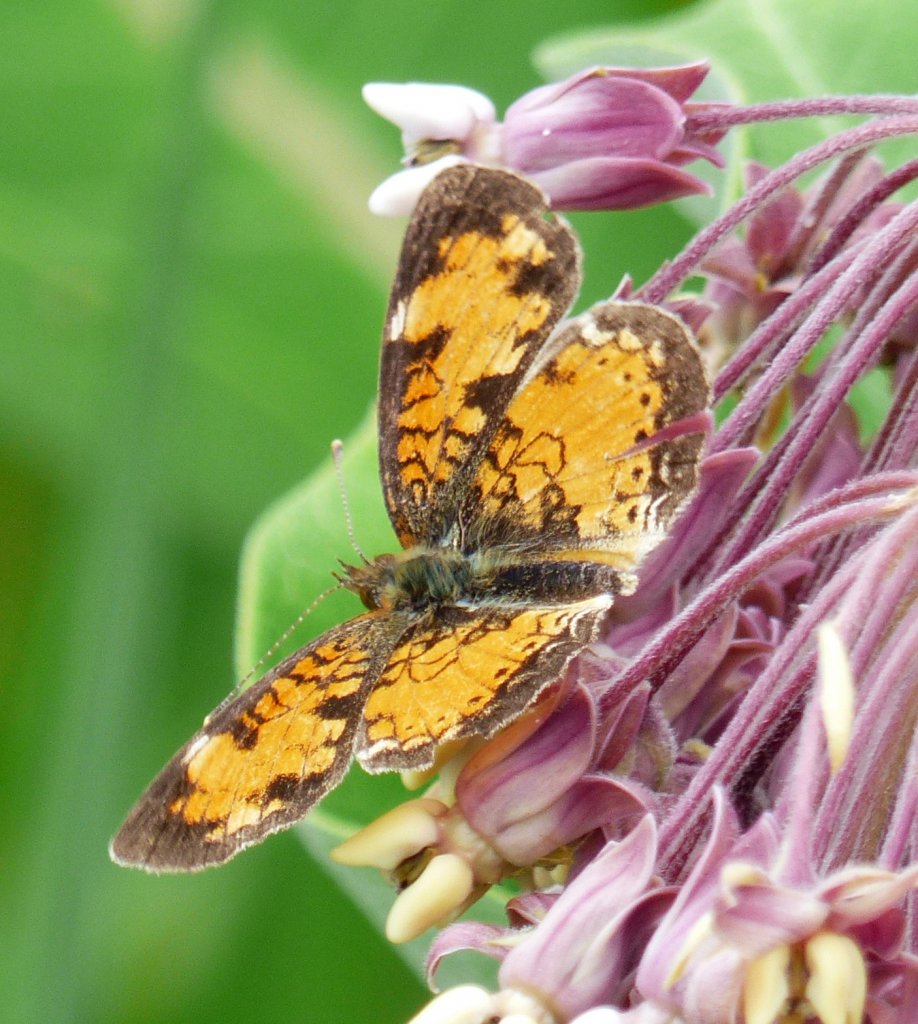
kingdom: Animalia
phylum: Arthropoda
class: Insecta
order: Lepidoptera
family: Nymphalidae
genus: Phyciodes
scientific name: Phyciodes tharos
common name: Northern Crescent
